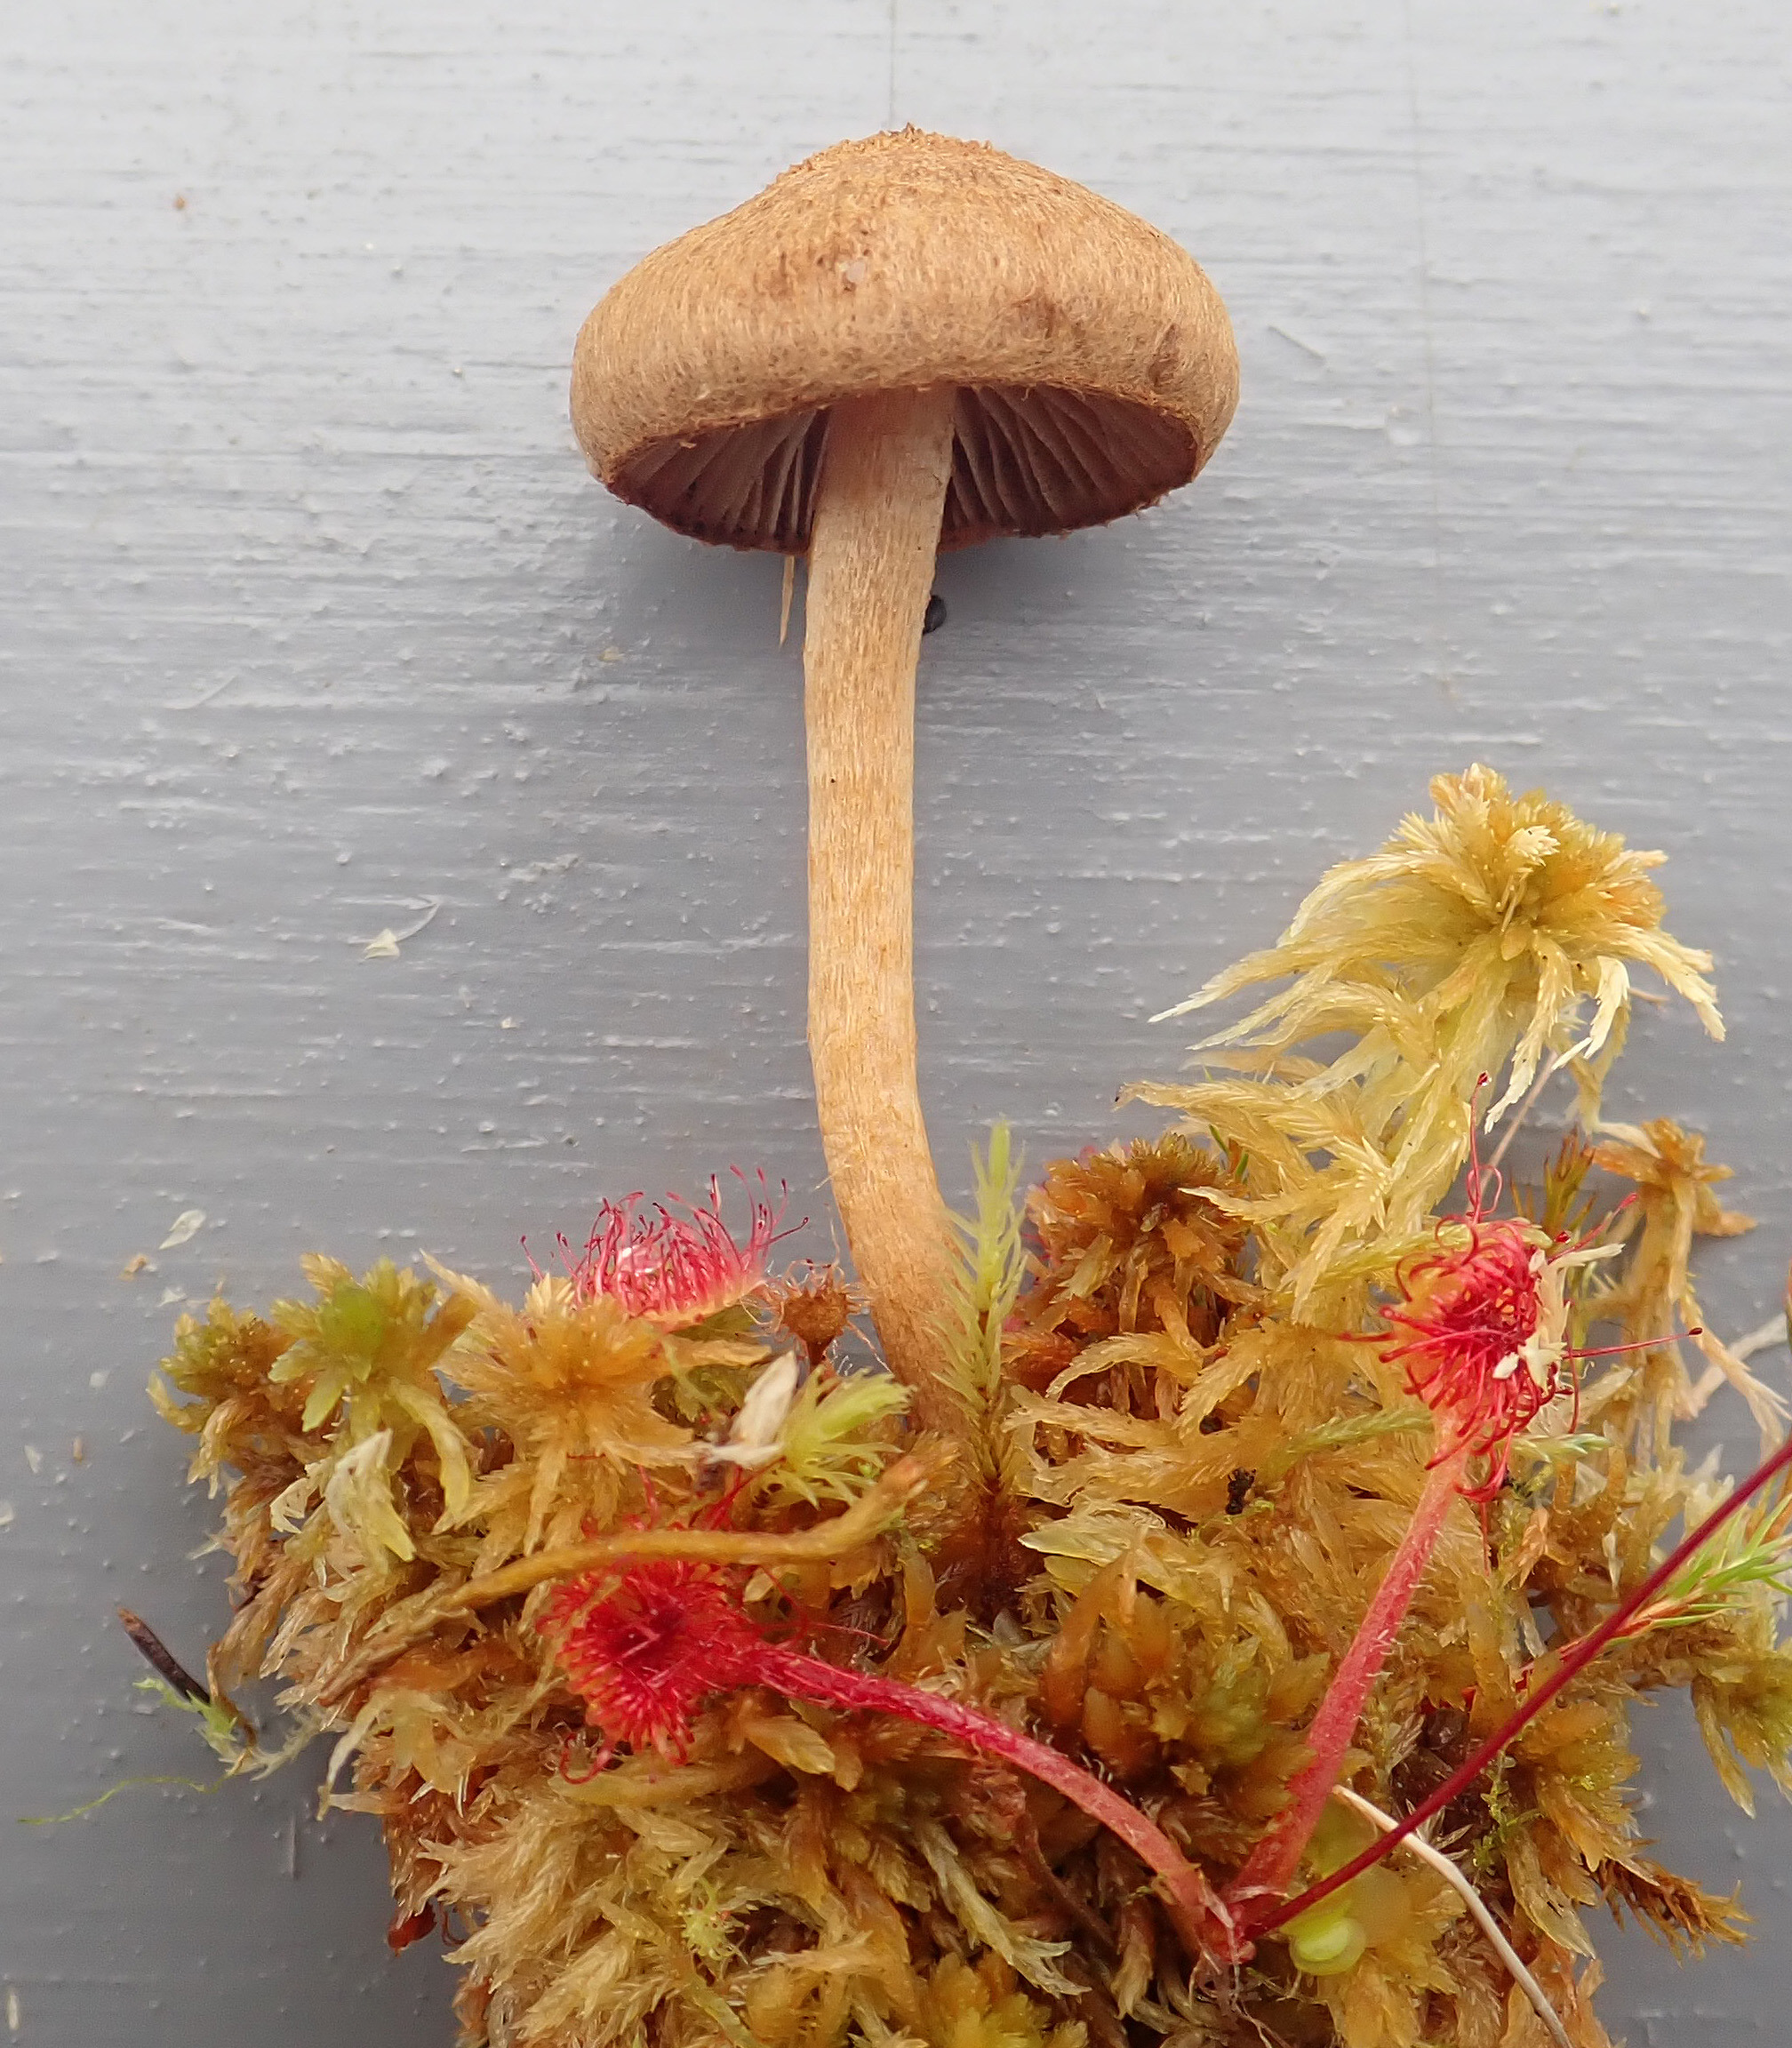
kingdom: Fungi
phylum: Basidiomycota
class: Agaricomycetes
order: Agaricales
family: Inocybaceae
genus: Inocybe
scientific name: Inocybe teraturgus
